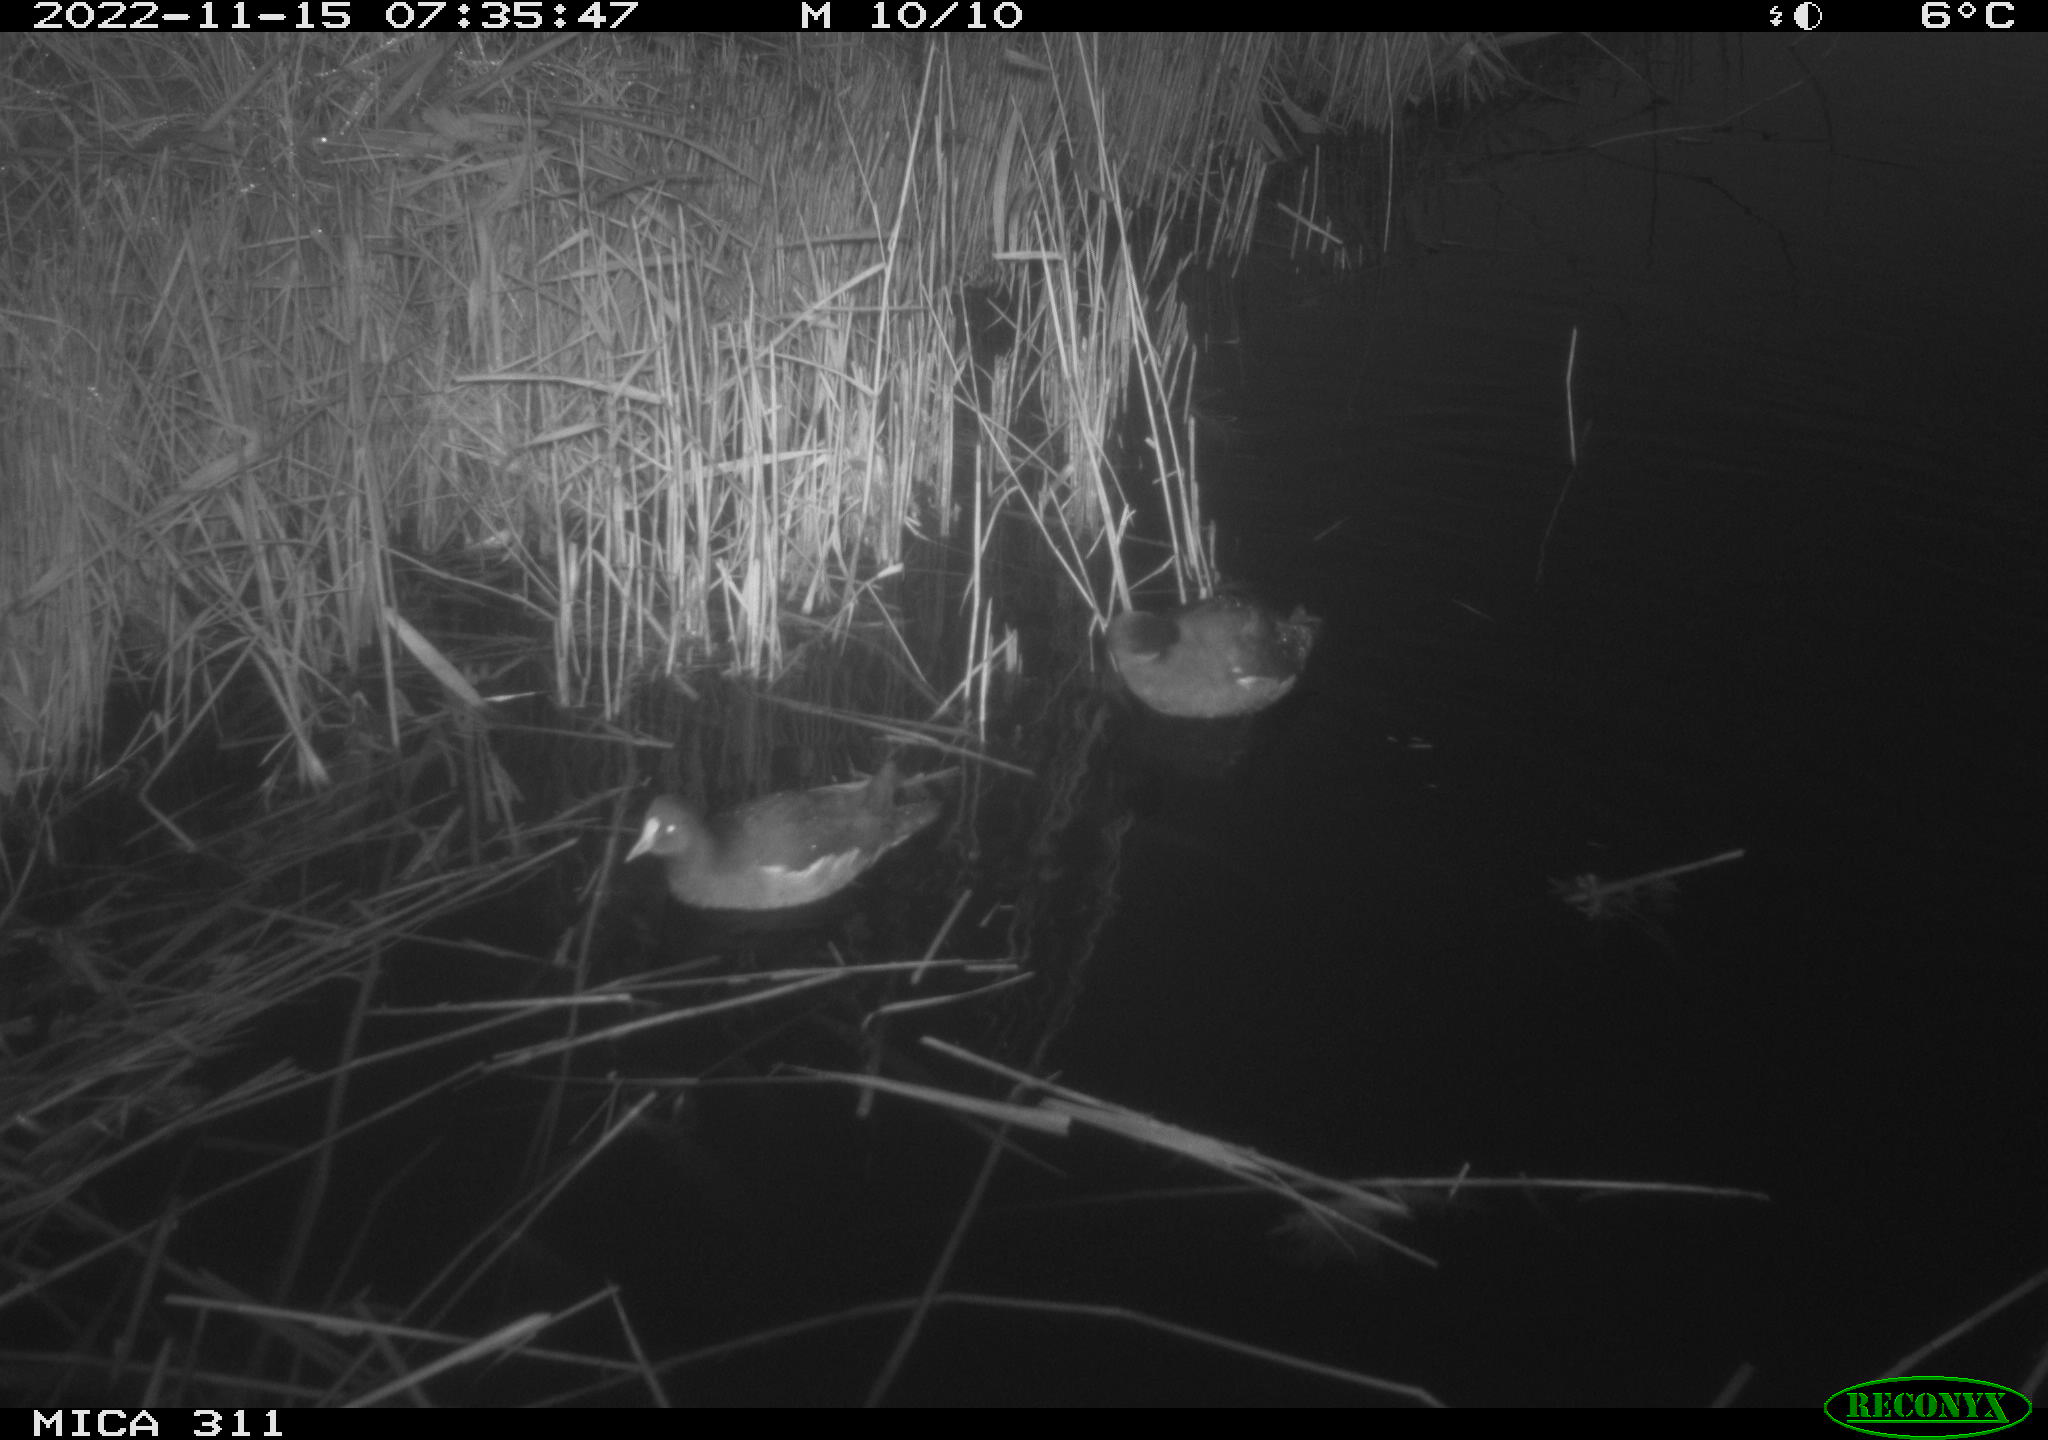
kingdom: Animalia
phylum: Chordata
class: Aves
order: Gruiformes
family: Rallidae
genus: Fulica
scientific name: Fulica atra
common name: Eurasian coot
